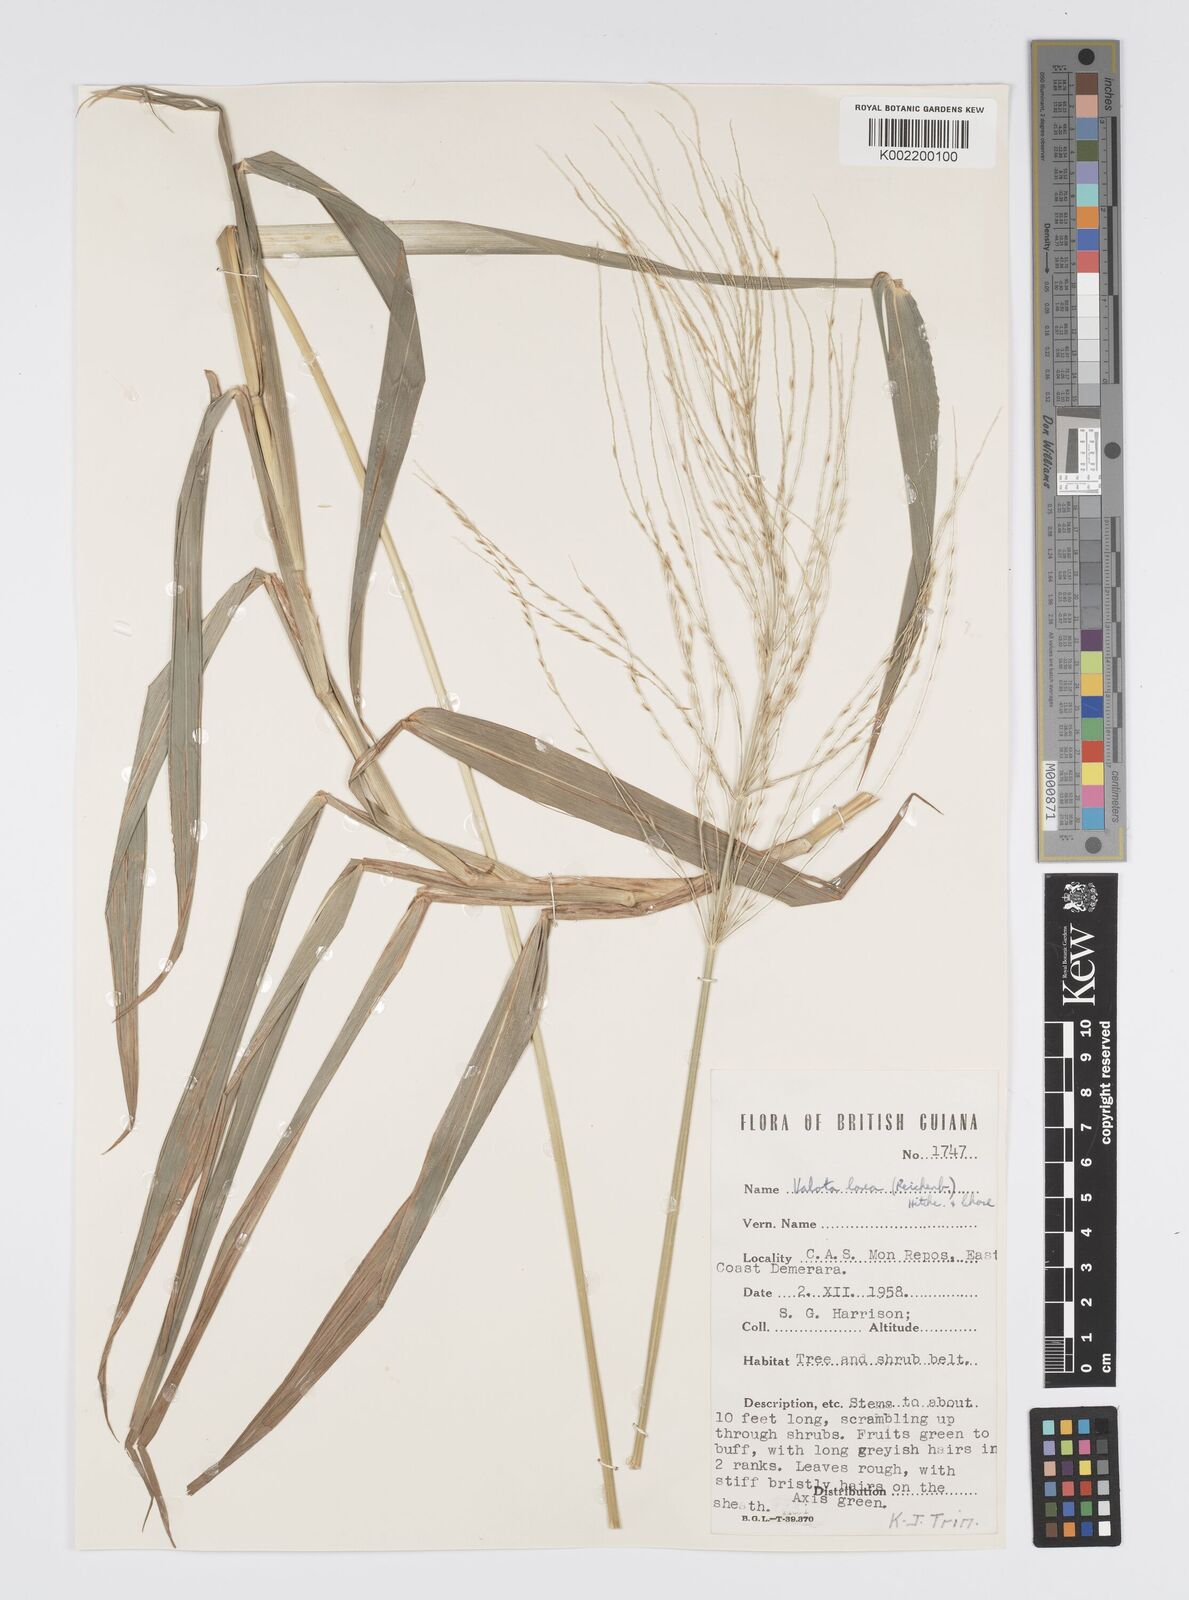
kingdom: Plantae
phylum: Tracheophyta
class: Liliopsida
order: Poales
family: Poaceae
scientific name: Poaceae
